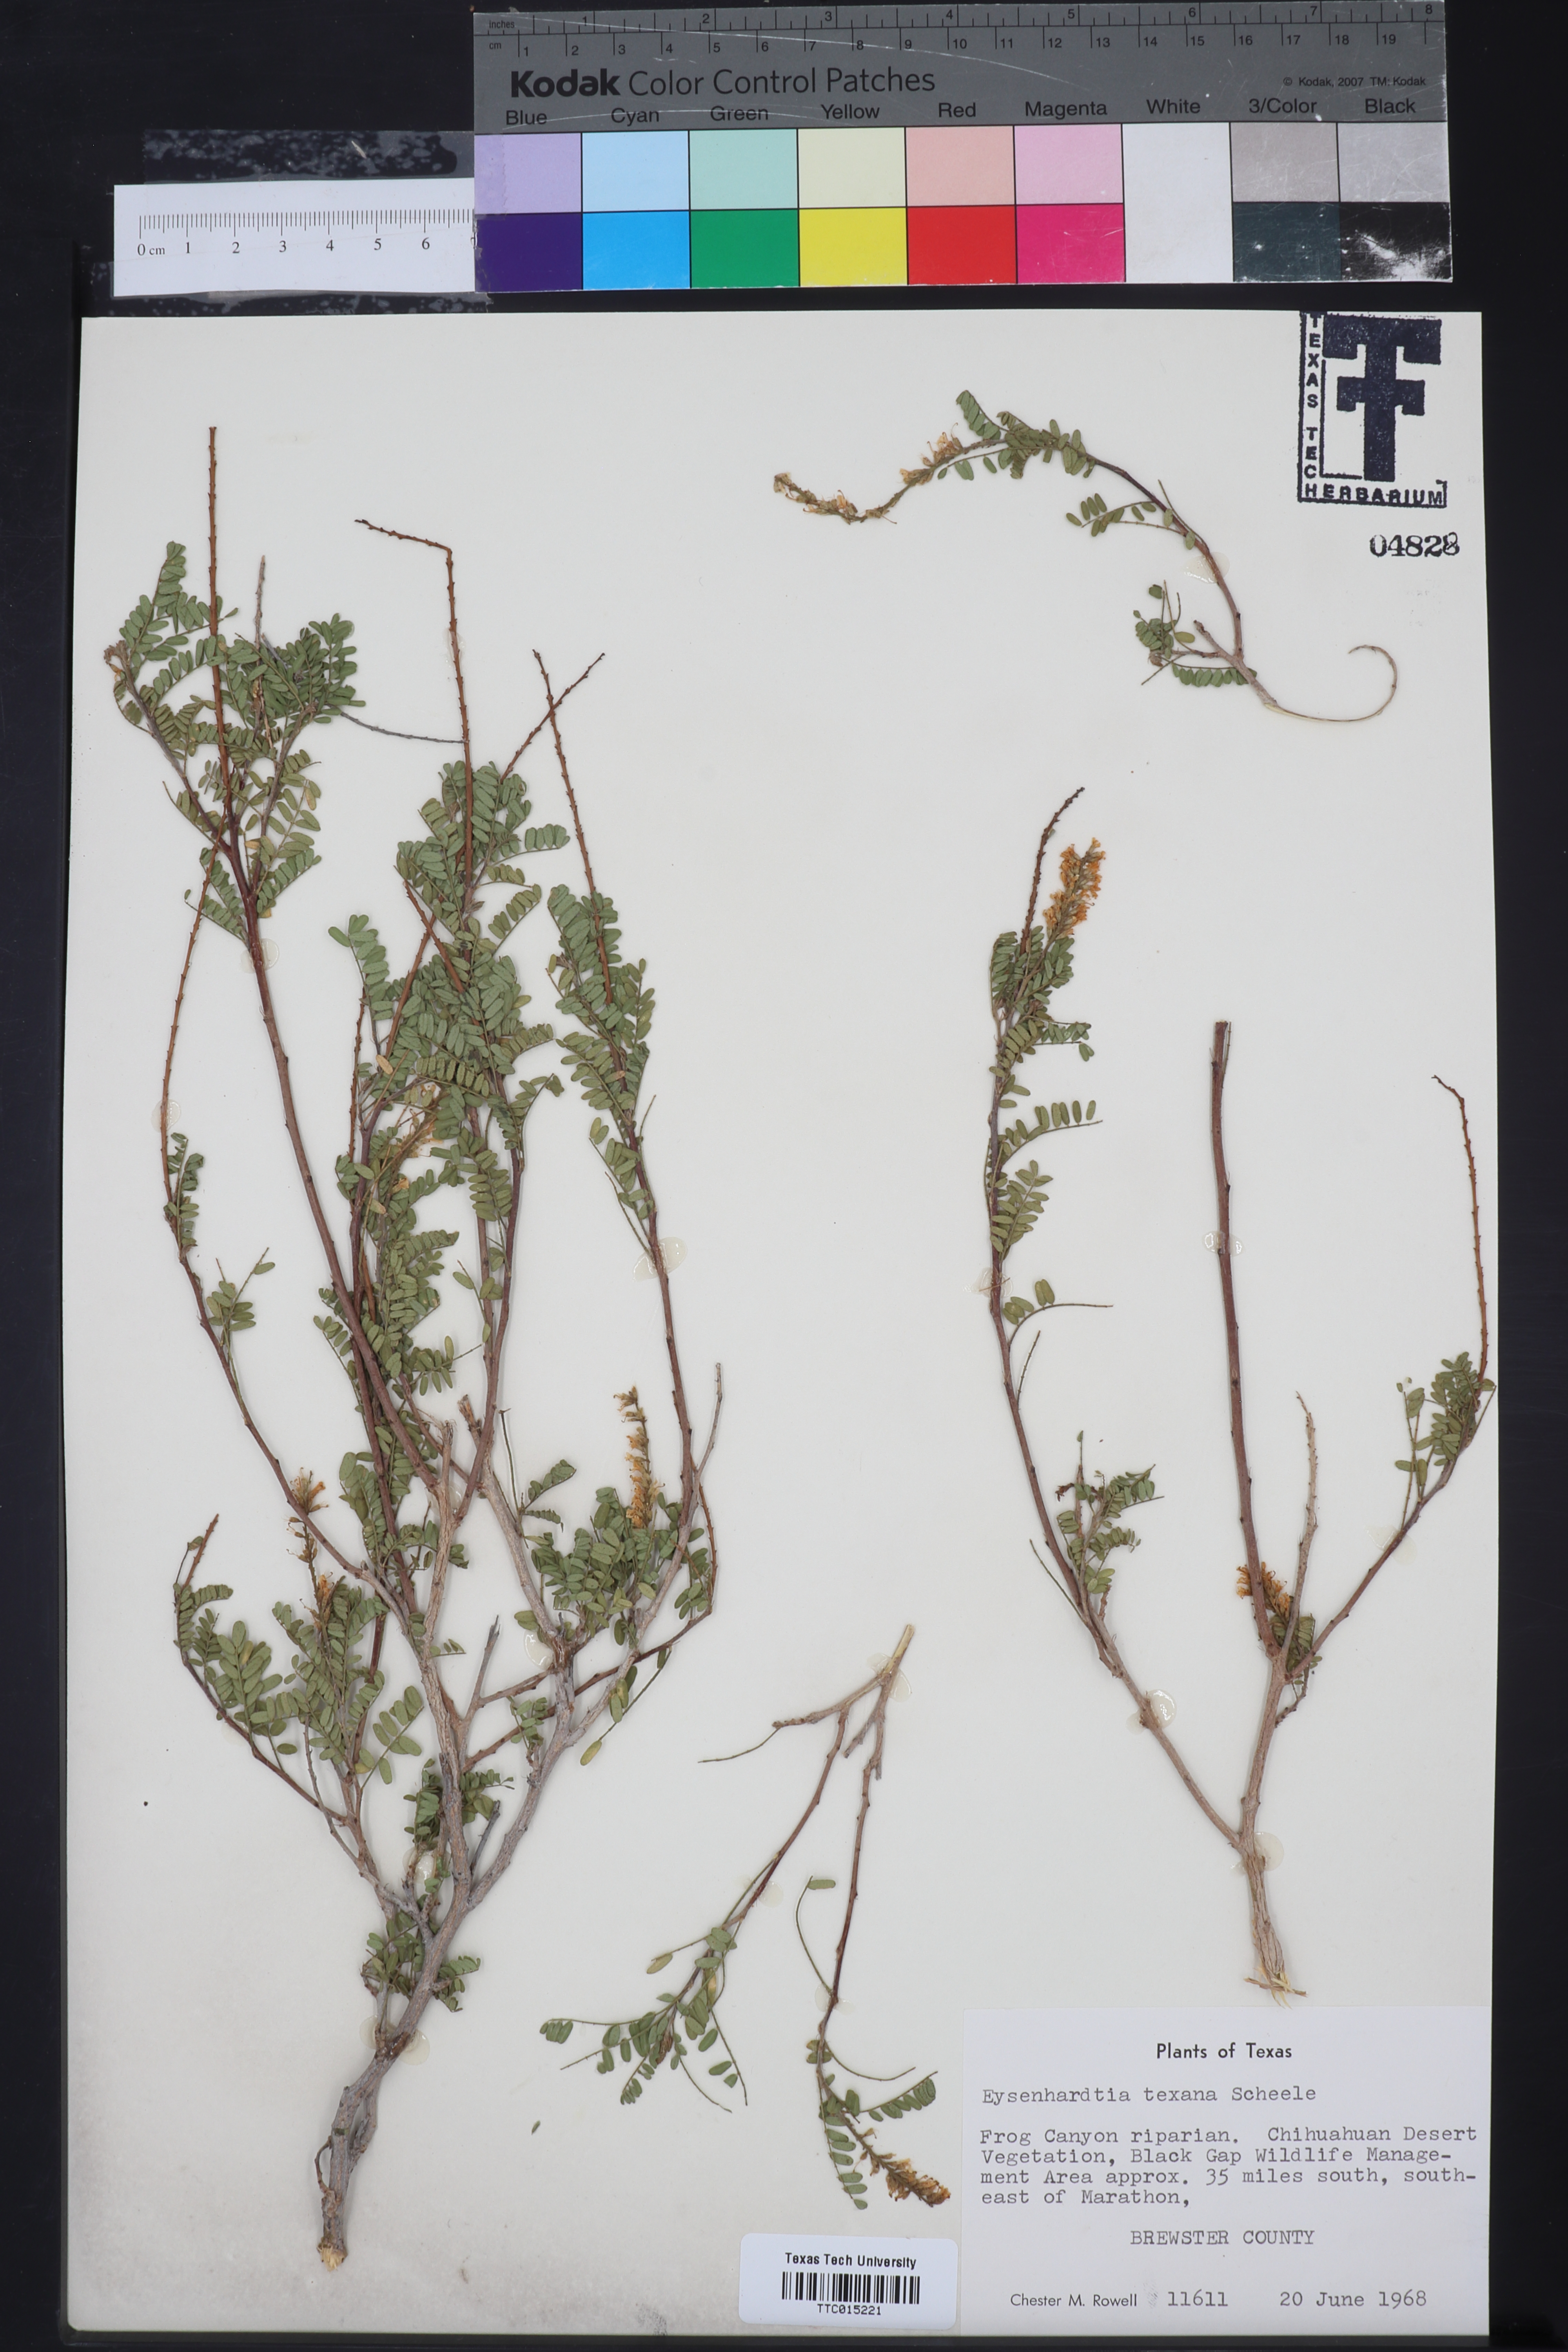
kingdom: Plantae
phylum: Tracheophyta
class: Magnoliopsida
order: Fabales
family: Fabaceae
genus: Eysenhardtia
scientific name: Eysenhardtia texana
